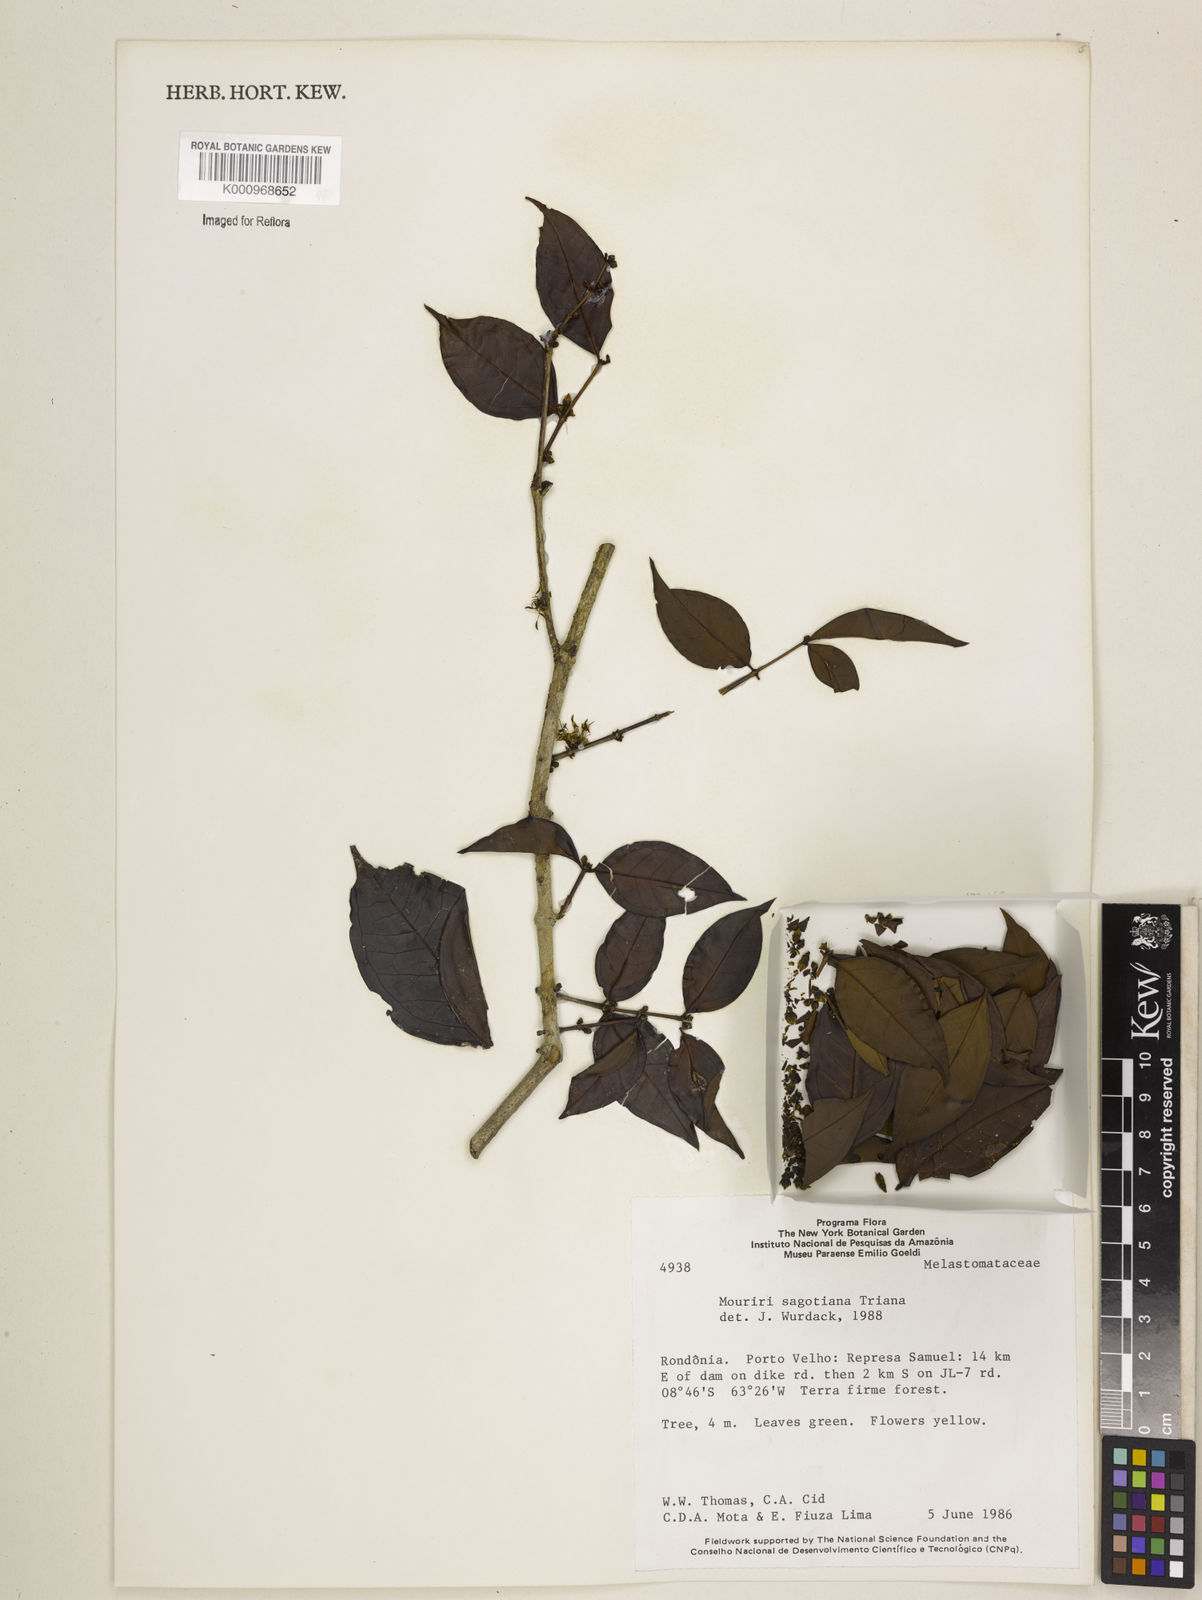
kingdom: Plantae
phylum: Tracheophyta
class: Magnoliopsida
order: Myrtales
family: Melastomataceae
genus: Mouriri
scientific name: Mouriri sagotiana
